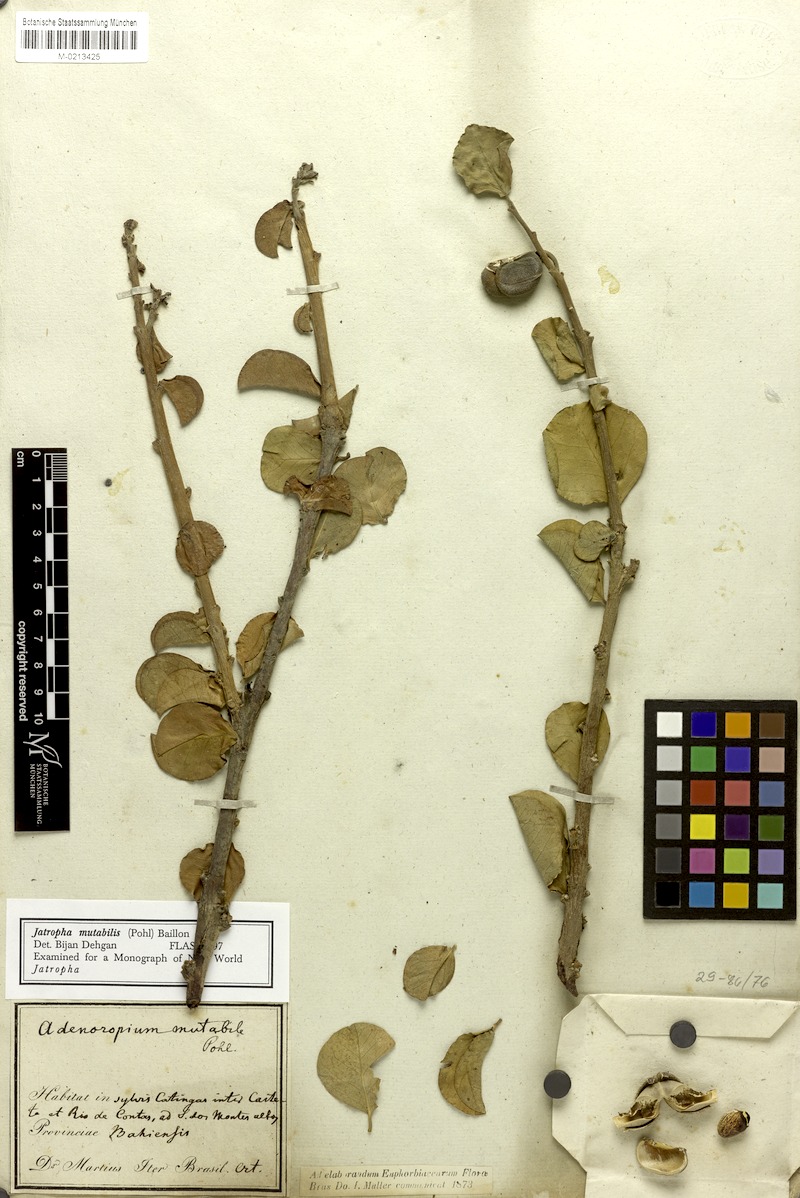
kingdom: Plantae
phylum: Tracheophyta
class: Magnoliopsida
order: Malpighiales
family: Euphorbiaceae
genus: Jatropha
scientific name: Jatropha mutabilis
